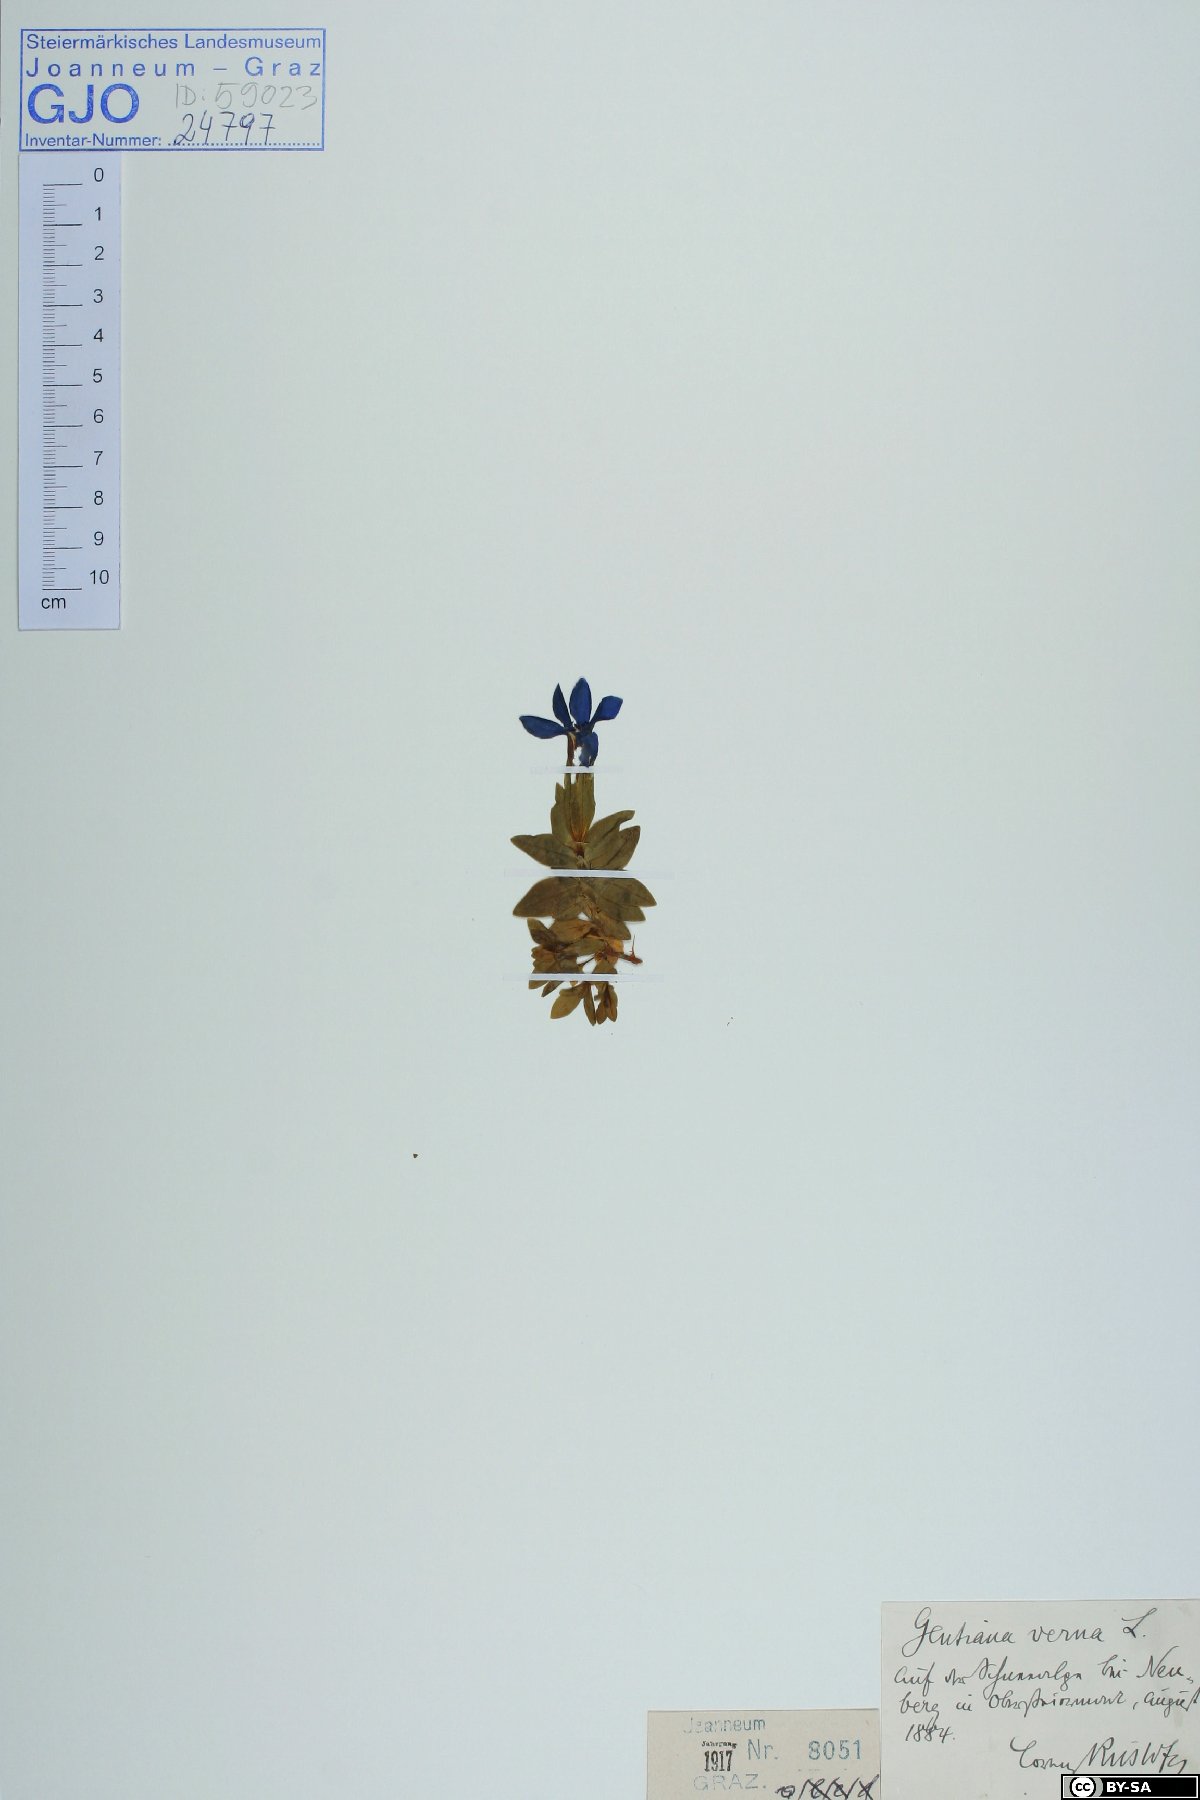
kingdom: Plantae
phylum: Tracheophyta
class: Magnoliopsida
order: Gentianales
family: Gentianaceae
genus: Gentiana
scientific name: Gentiana verna
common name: Spring gentian
